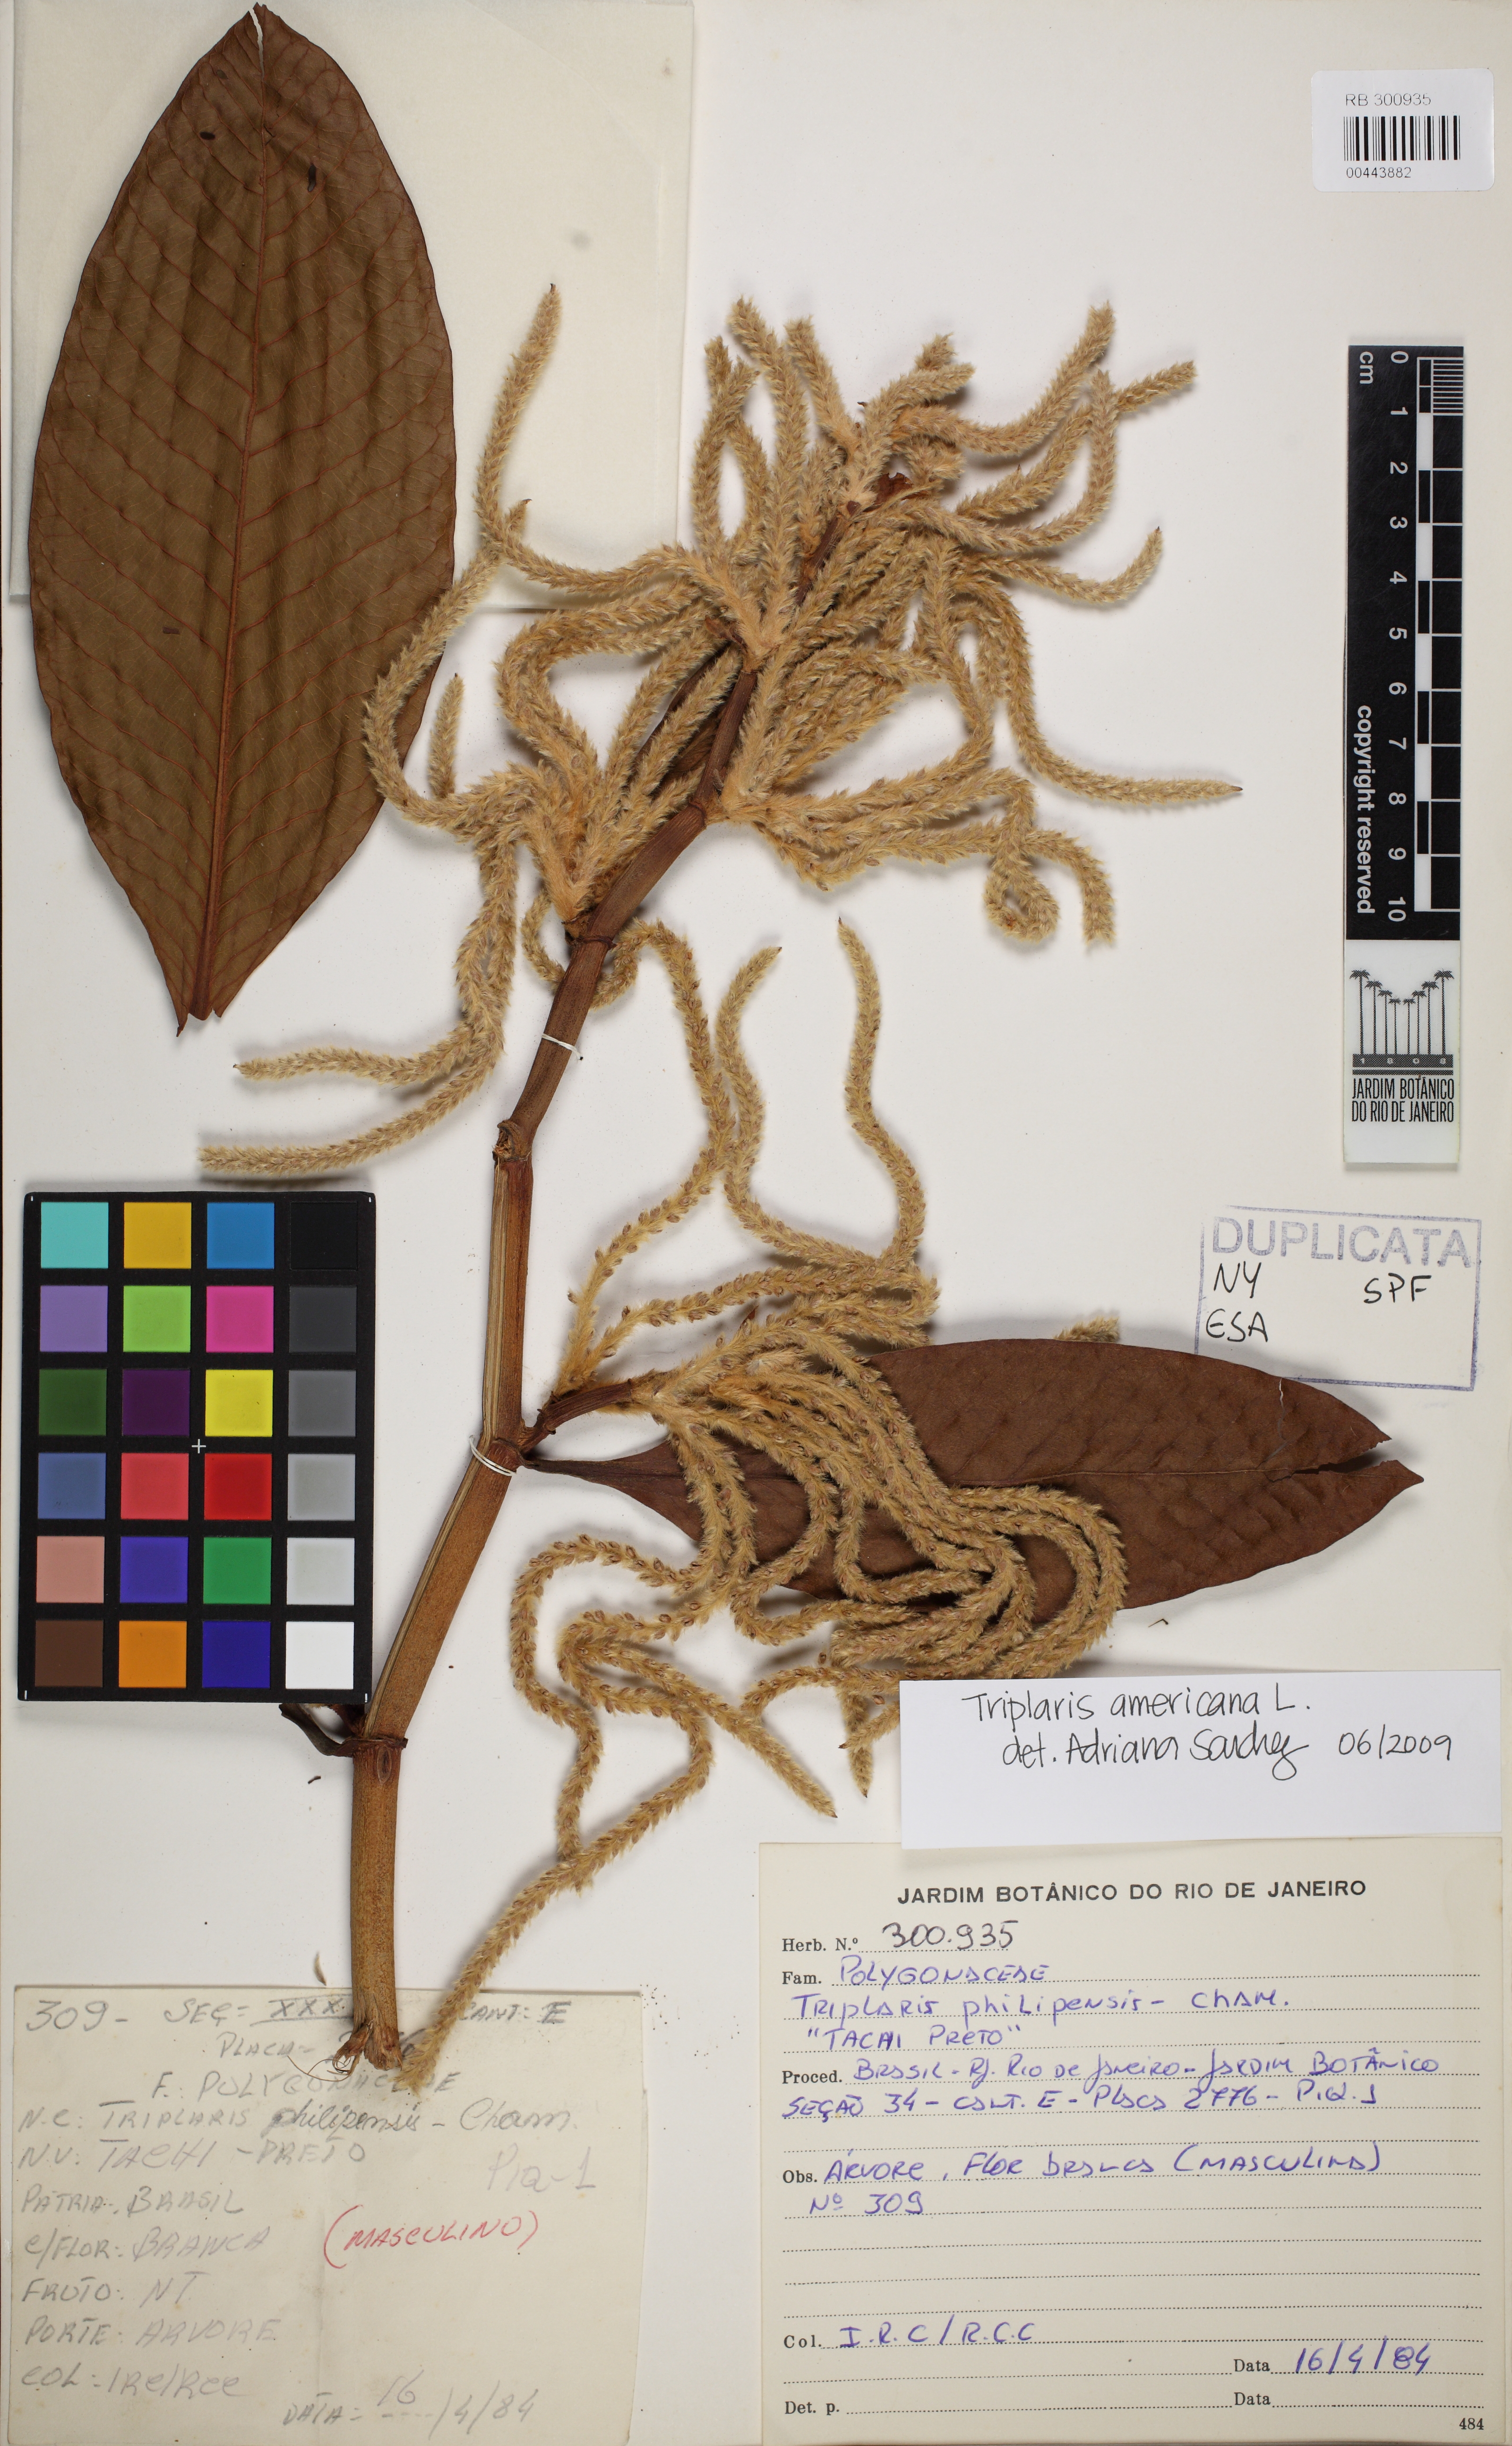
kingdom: Plantae
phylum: Tracheophyta
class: Magnoliopsida
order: Caryophyllales
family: Polygonaceae
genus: Triplaris
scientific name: Triplaris americana
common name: Ant-tree
